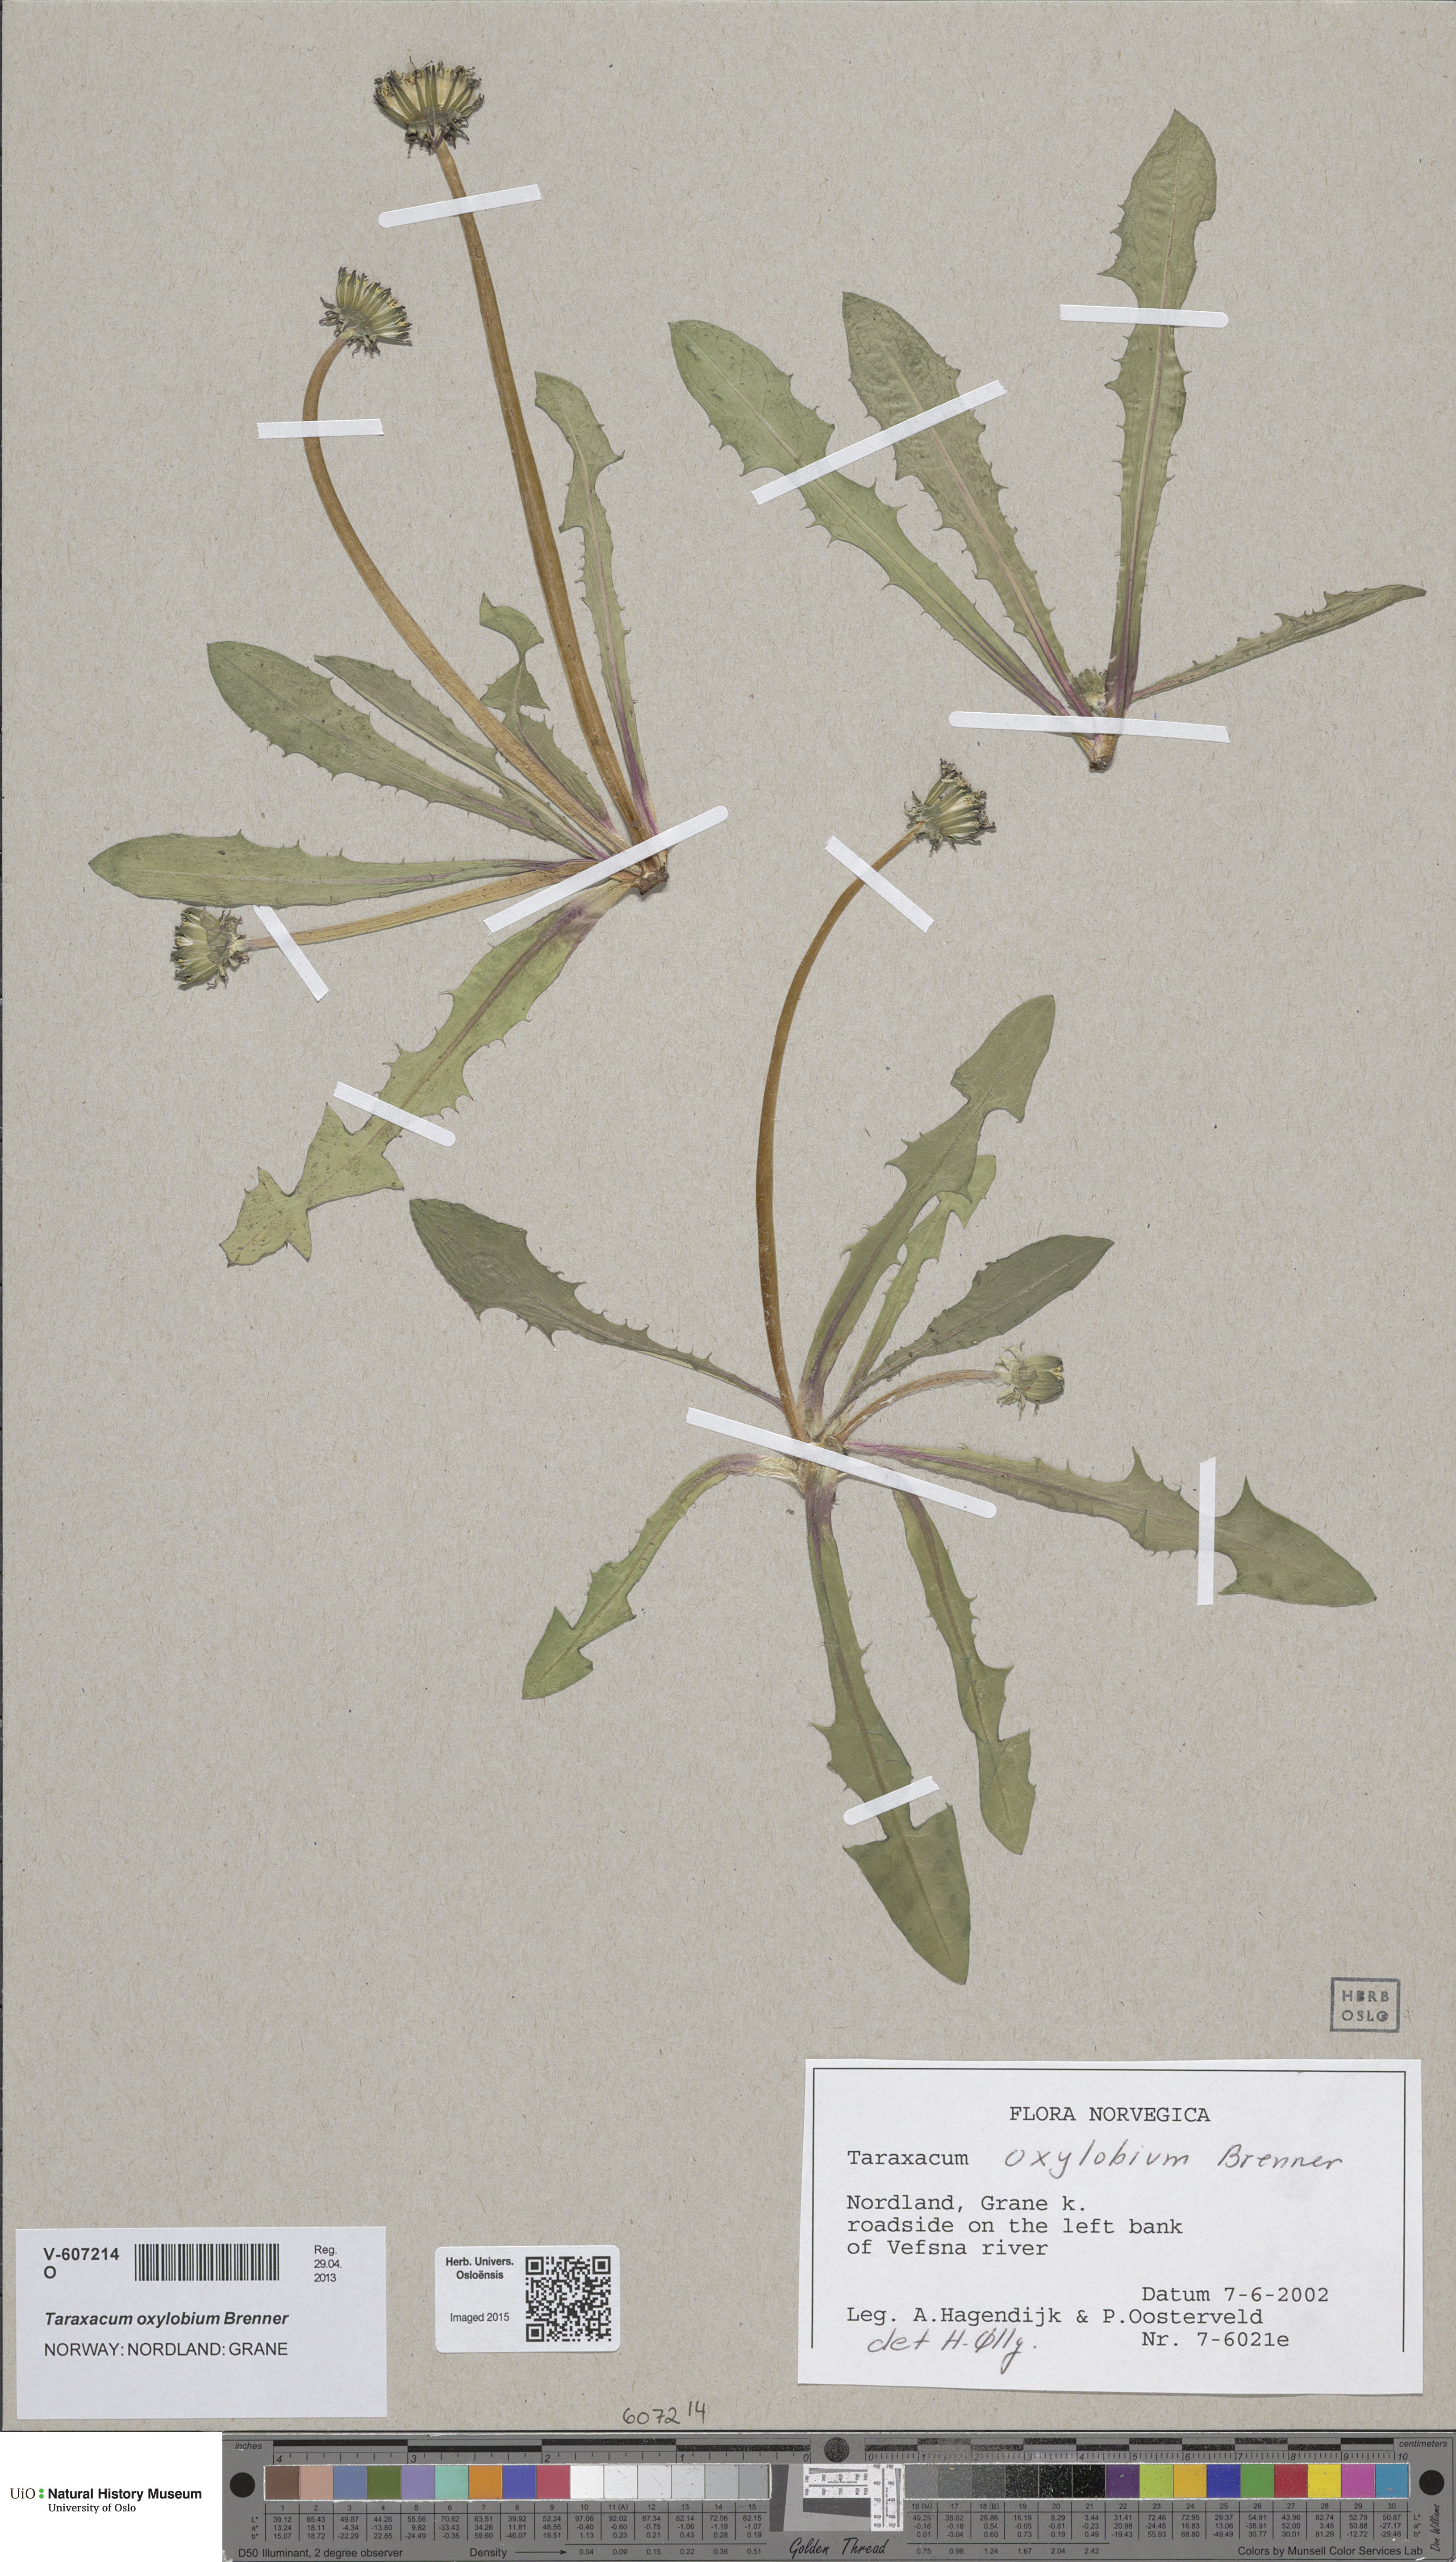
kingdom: Plantae
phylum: Tracheophyta
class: Magnoliopsida
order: Asterales
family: Asteraceae
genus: Taraxacum
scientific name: Taraxacum oxylobium
